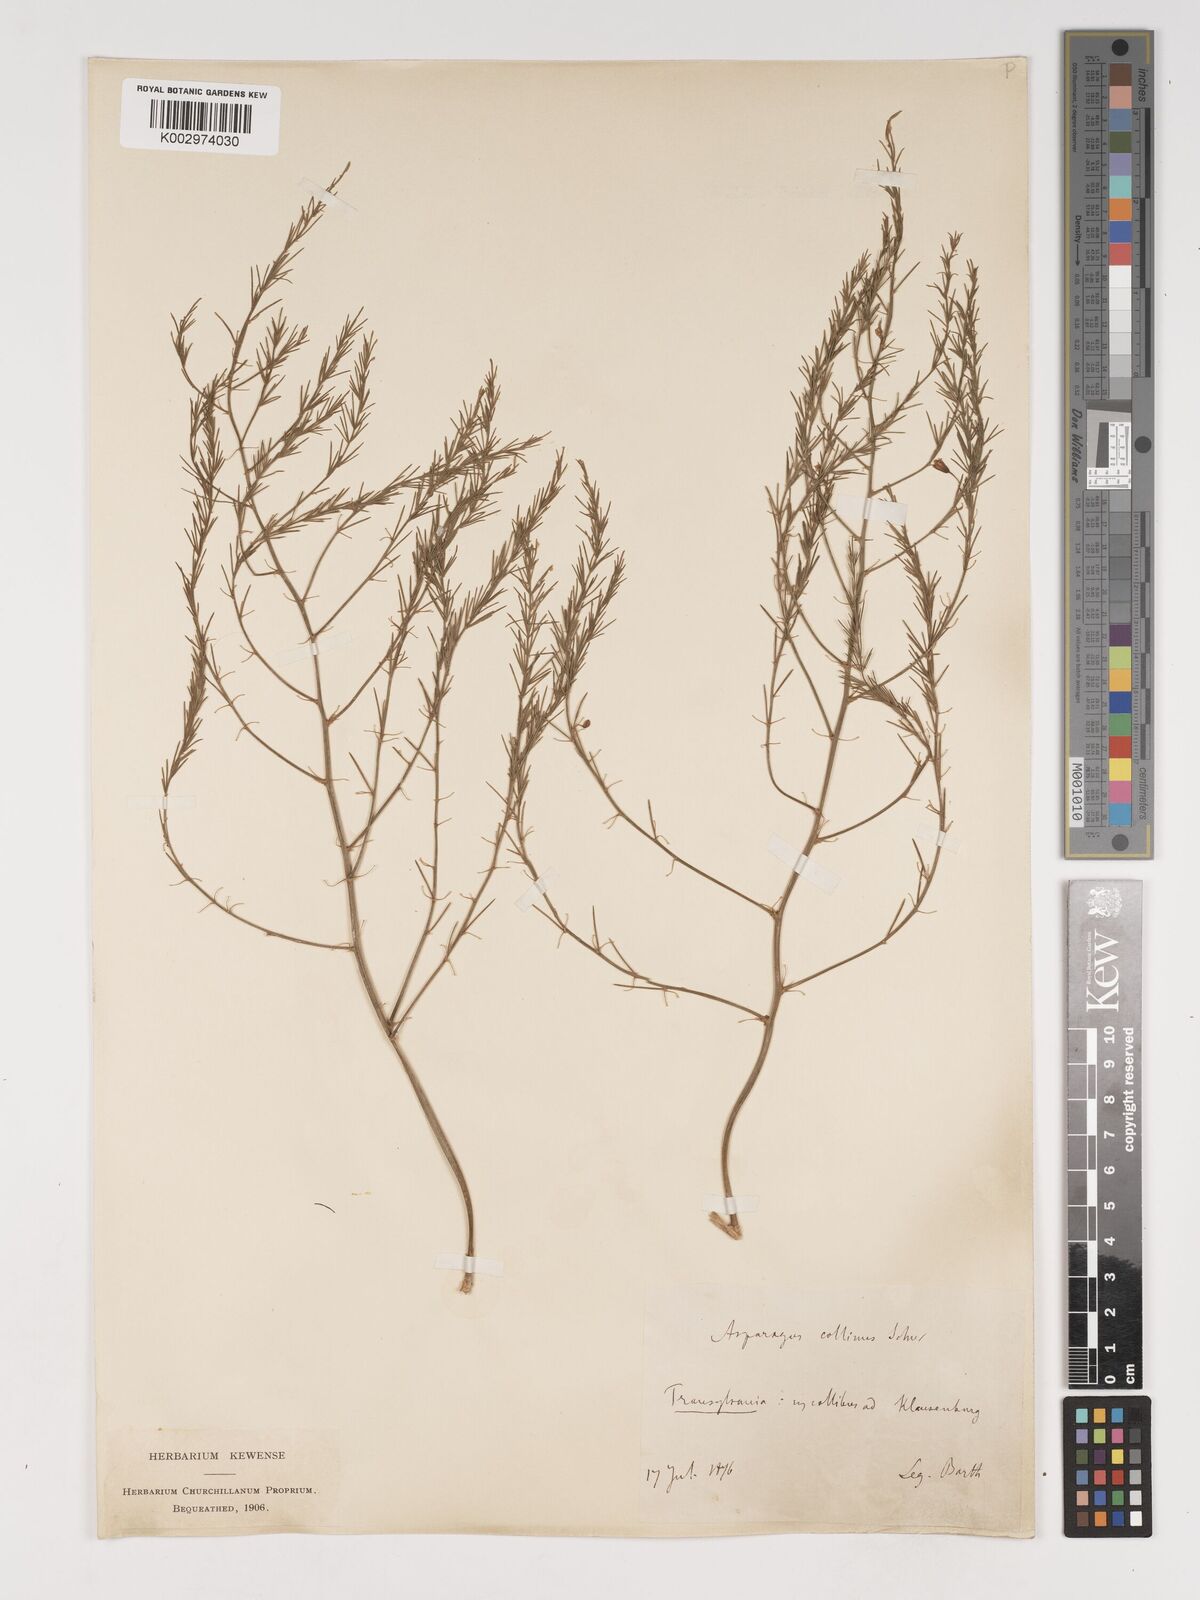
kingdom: Plantae
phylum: Tracheophyta
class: Liliopsida
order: Asparagales
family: Asparagaceae
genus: Asparagus
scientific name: Asparagus
